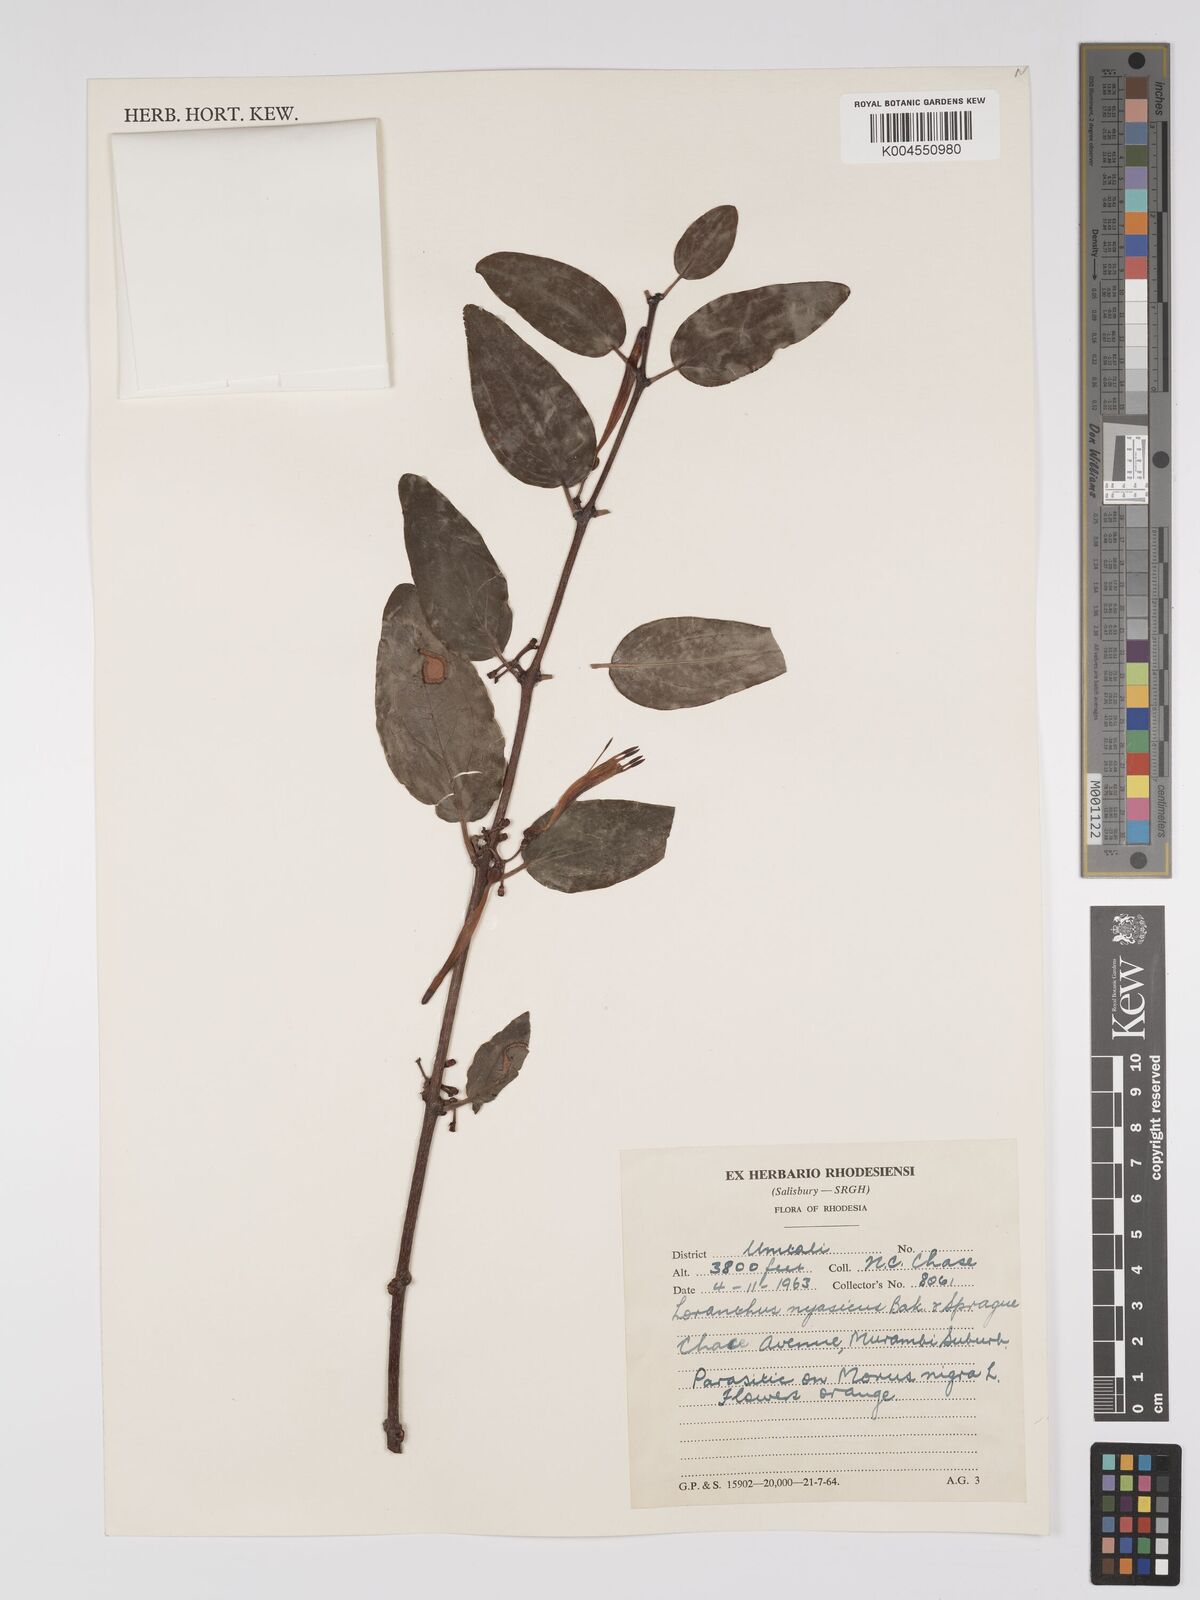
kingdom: Plantae
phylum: Tracheophyta
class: Magnoliopsida
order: Santalales
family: Loranthaceae
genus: Agelanthus
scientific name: Agelanthus flammeus
